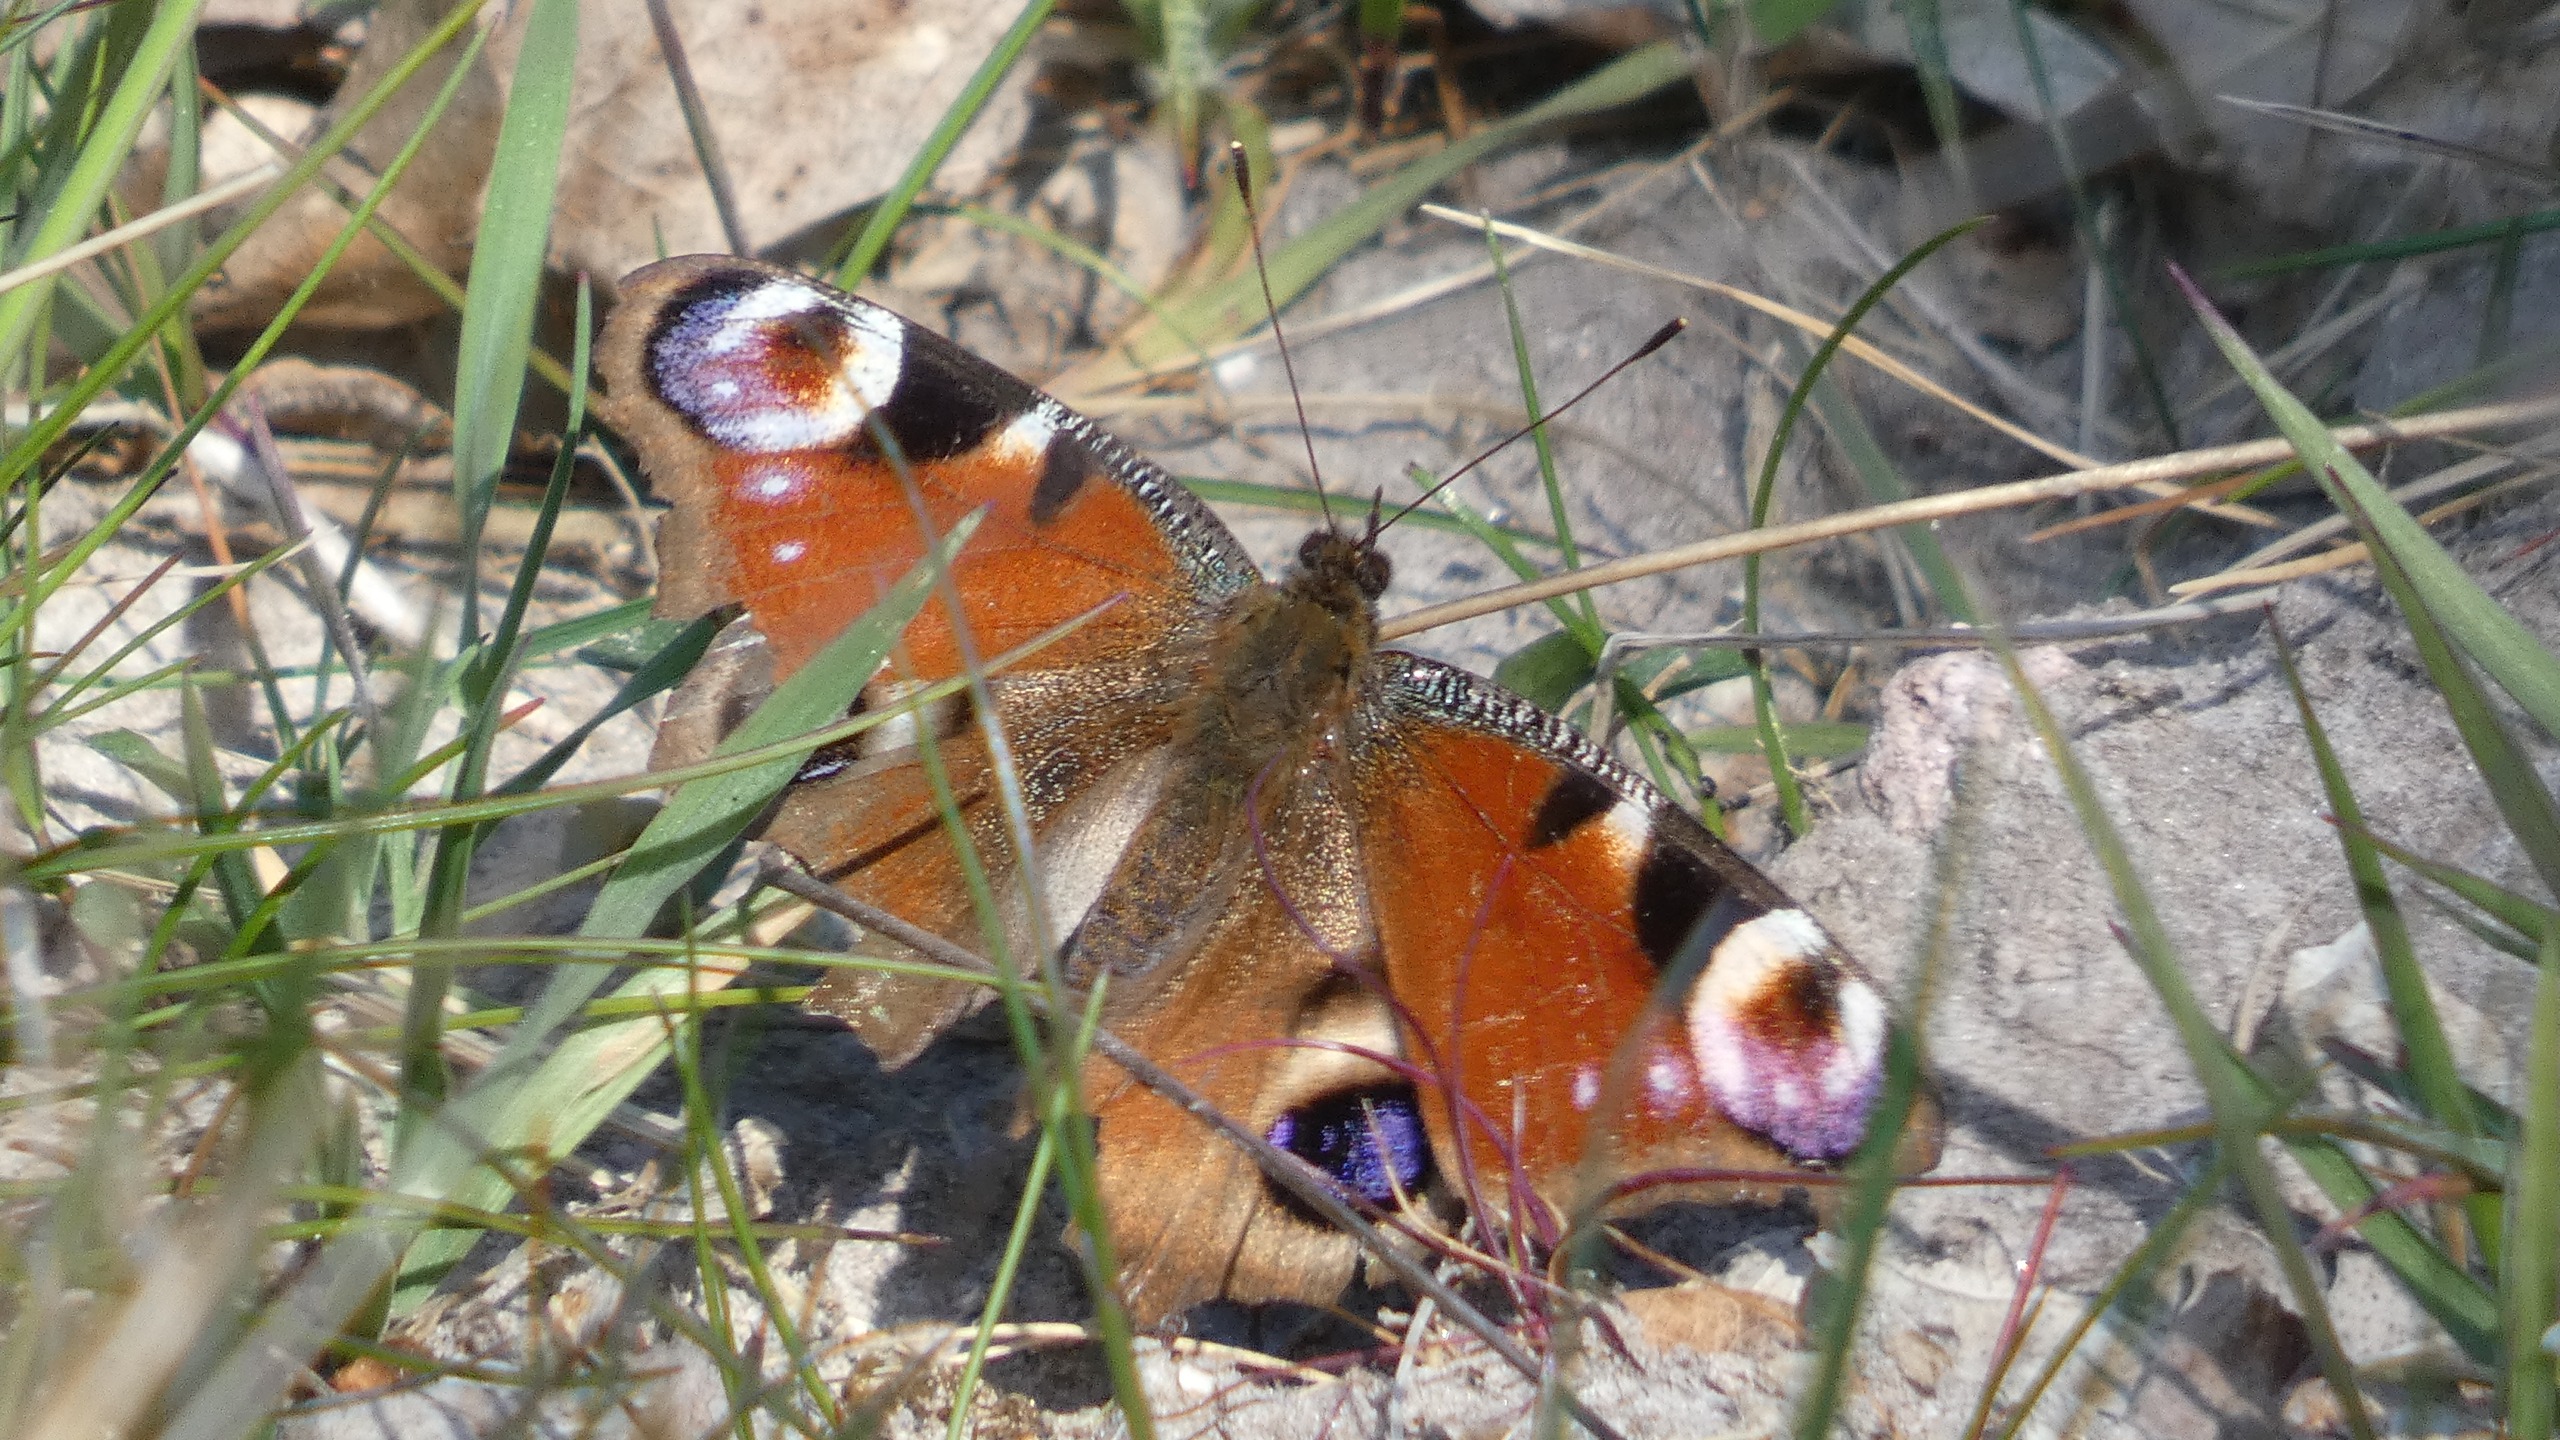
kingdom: Animalia
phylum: Arthropoda
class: Insecta
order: Lepidoptera
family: Nymphalidae
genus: Aglais
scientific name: Aglais io
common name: Dagpåfugleøje
